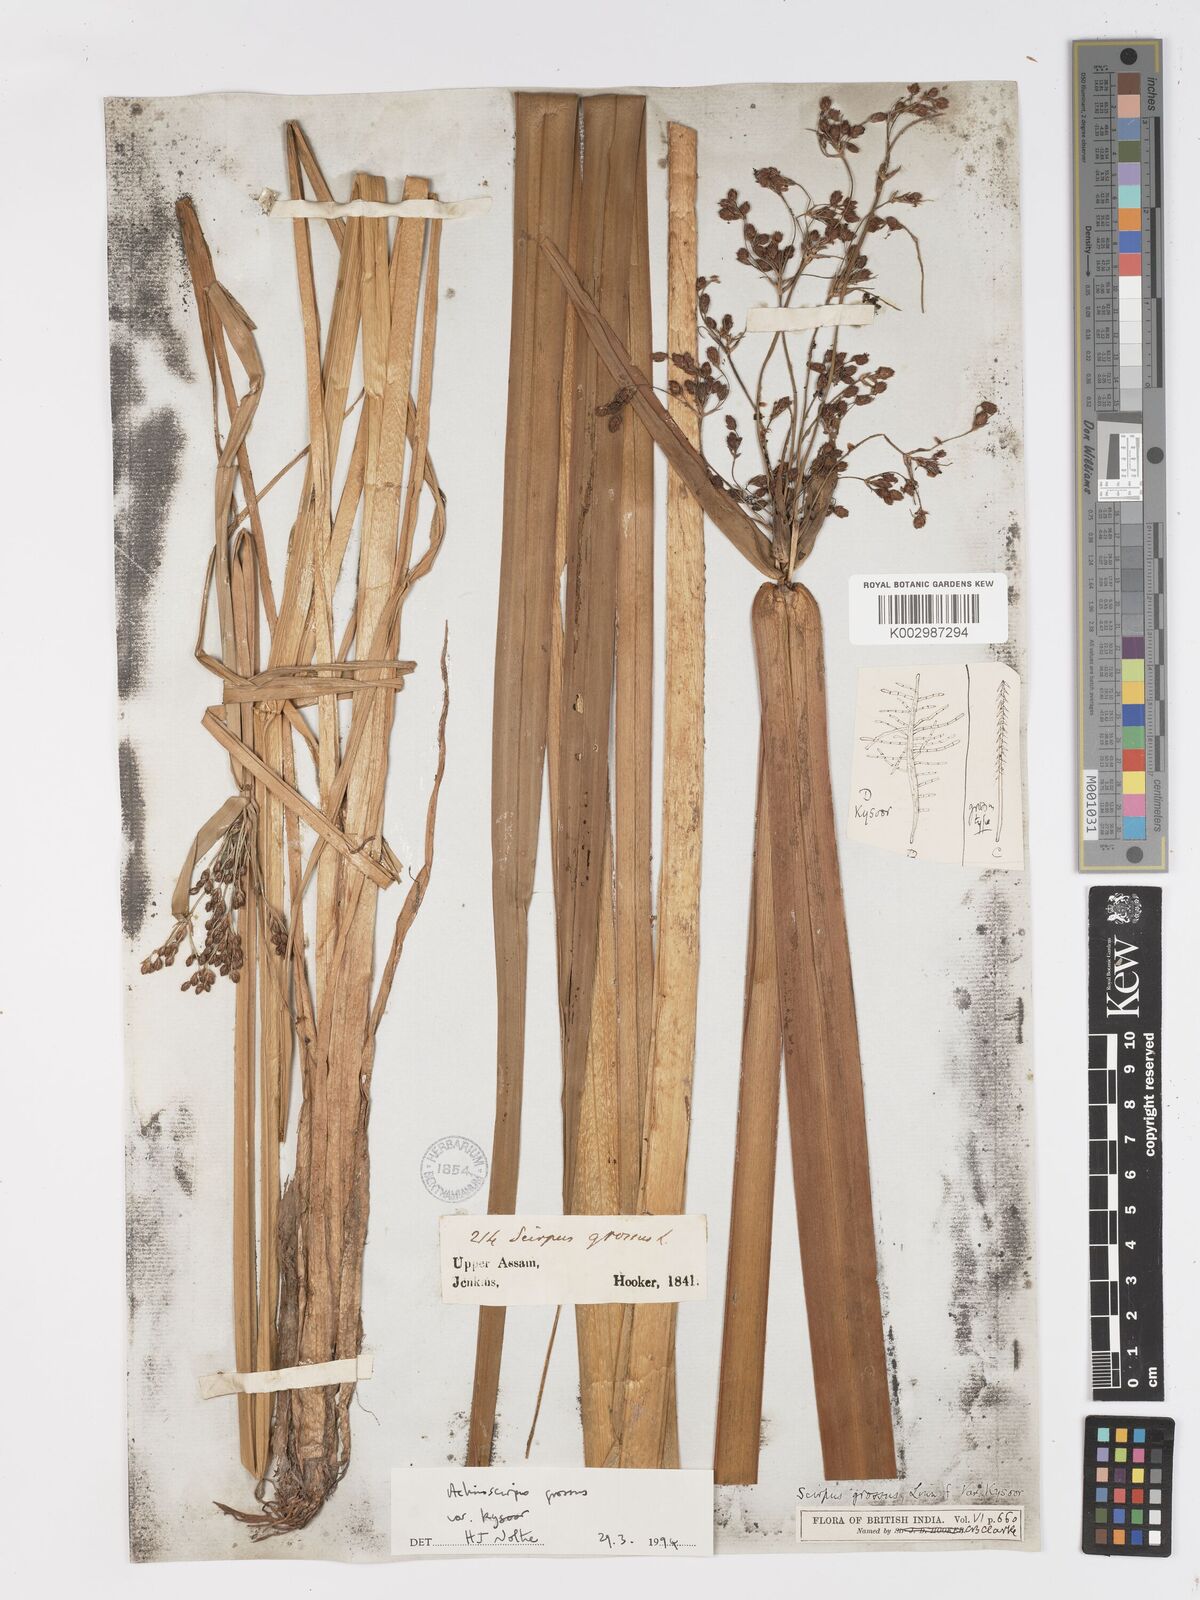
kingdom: Plantae
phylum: Tracheophyta
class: Liliopsida
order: Poales
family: Cyperaceae
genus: Actinoscirpus
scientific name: Actinoscirpus grossus
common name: Giant bur rush
